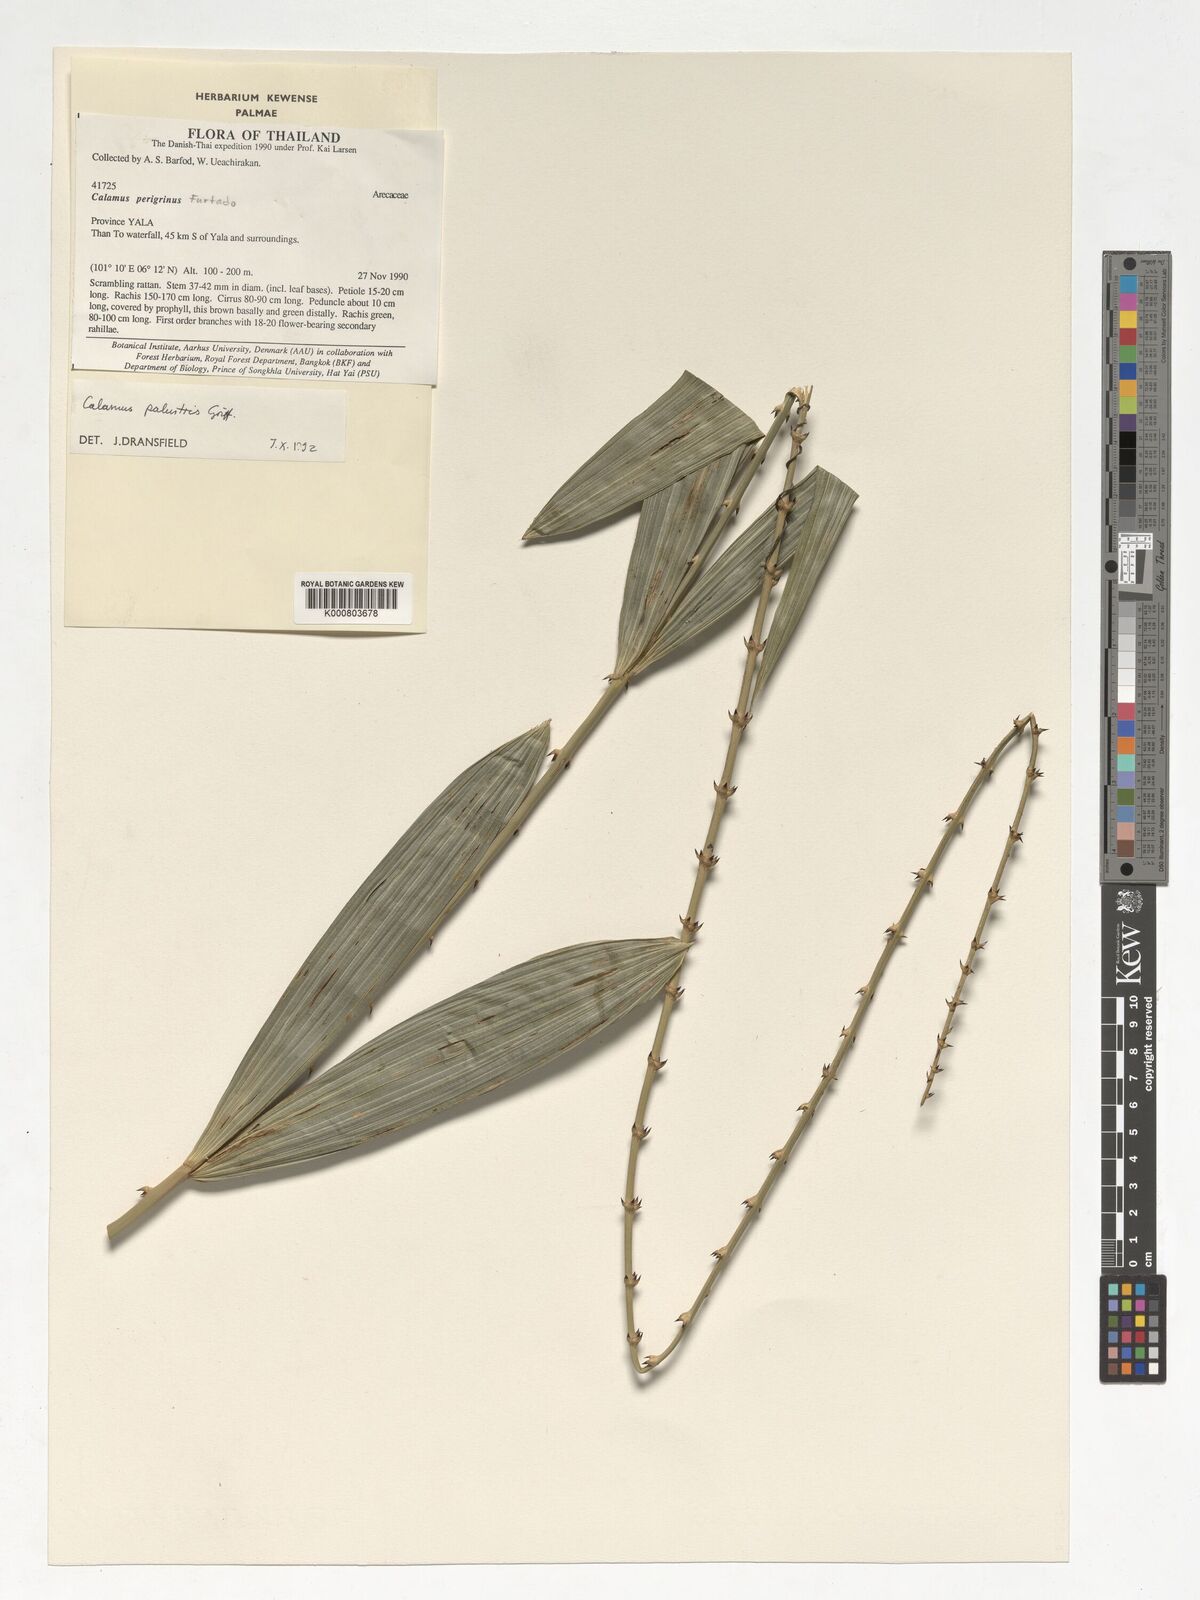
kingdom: Plantae
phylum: Tracheophyta
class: Liliopsida
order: Arecales
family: Arecaceae
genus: Calamus
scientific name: Calamus latifolius
